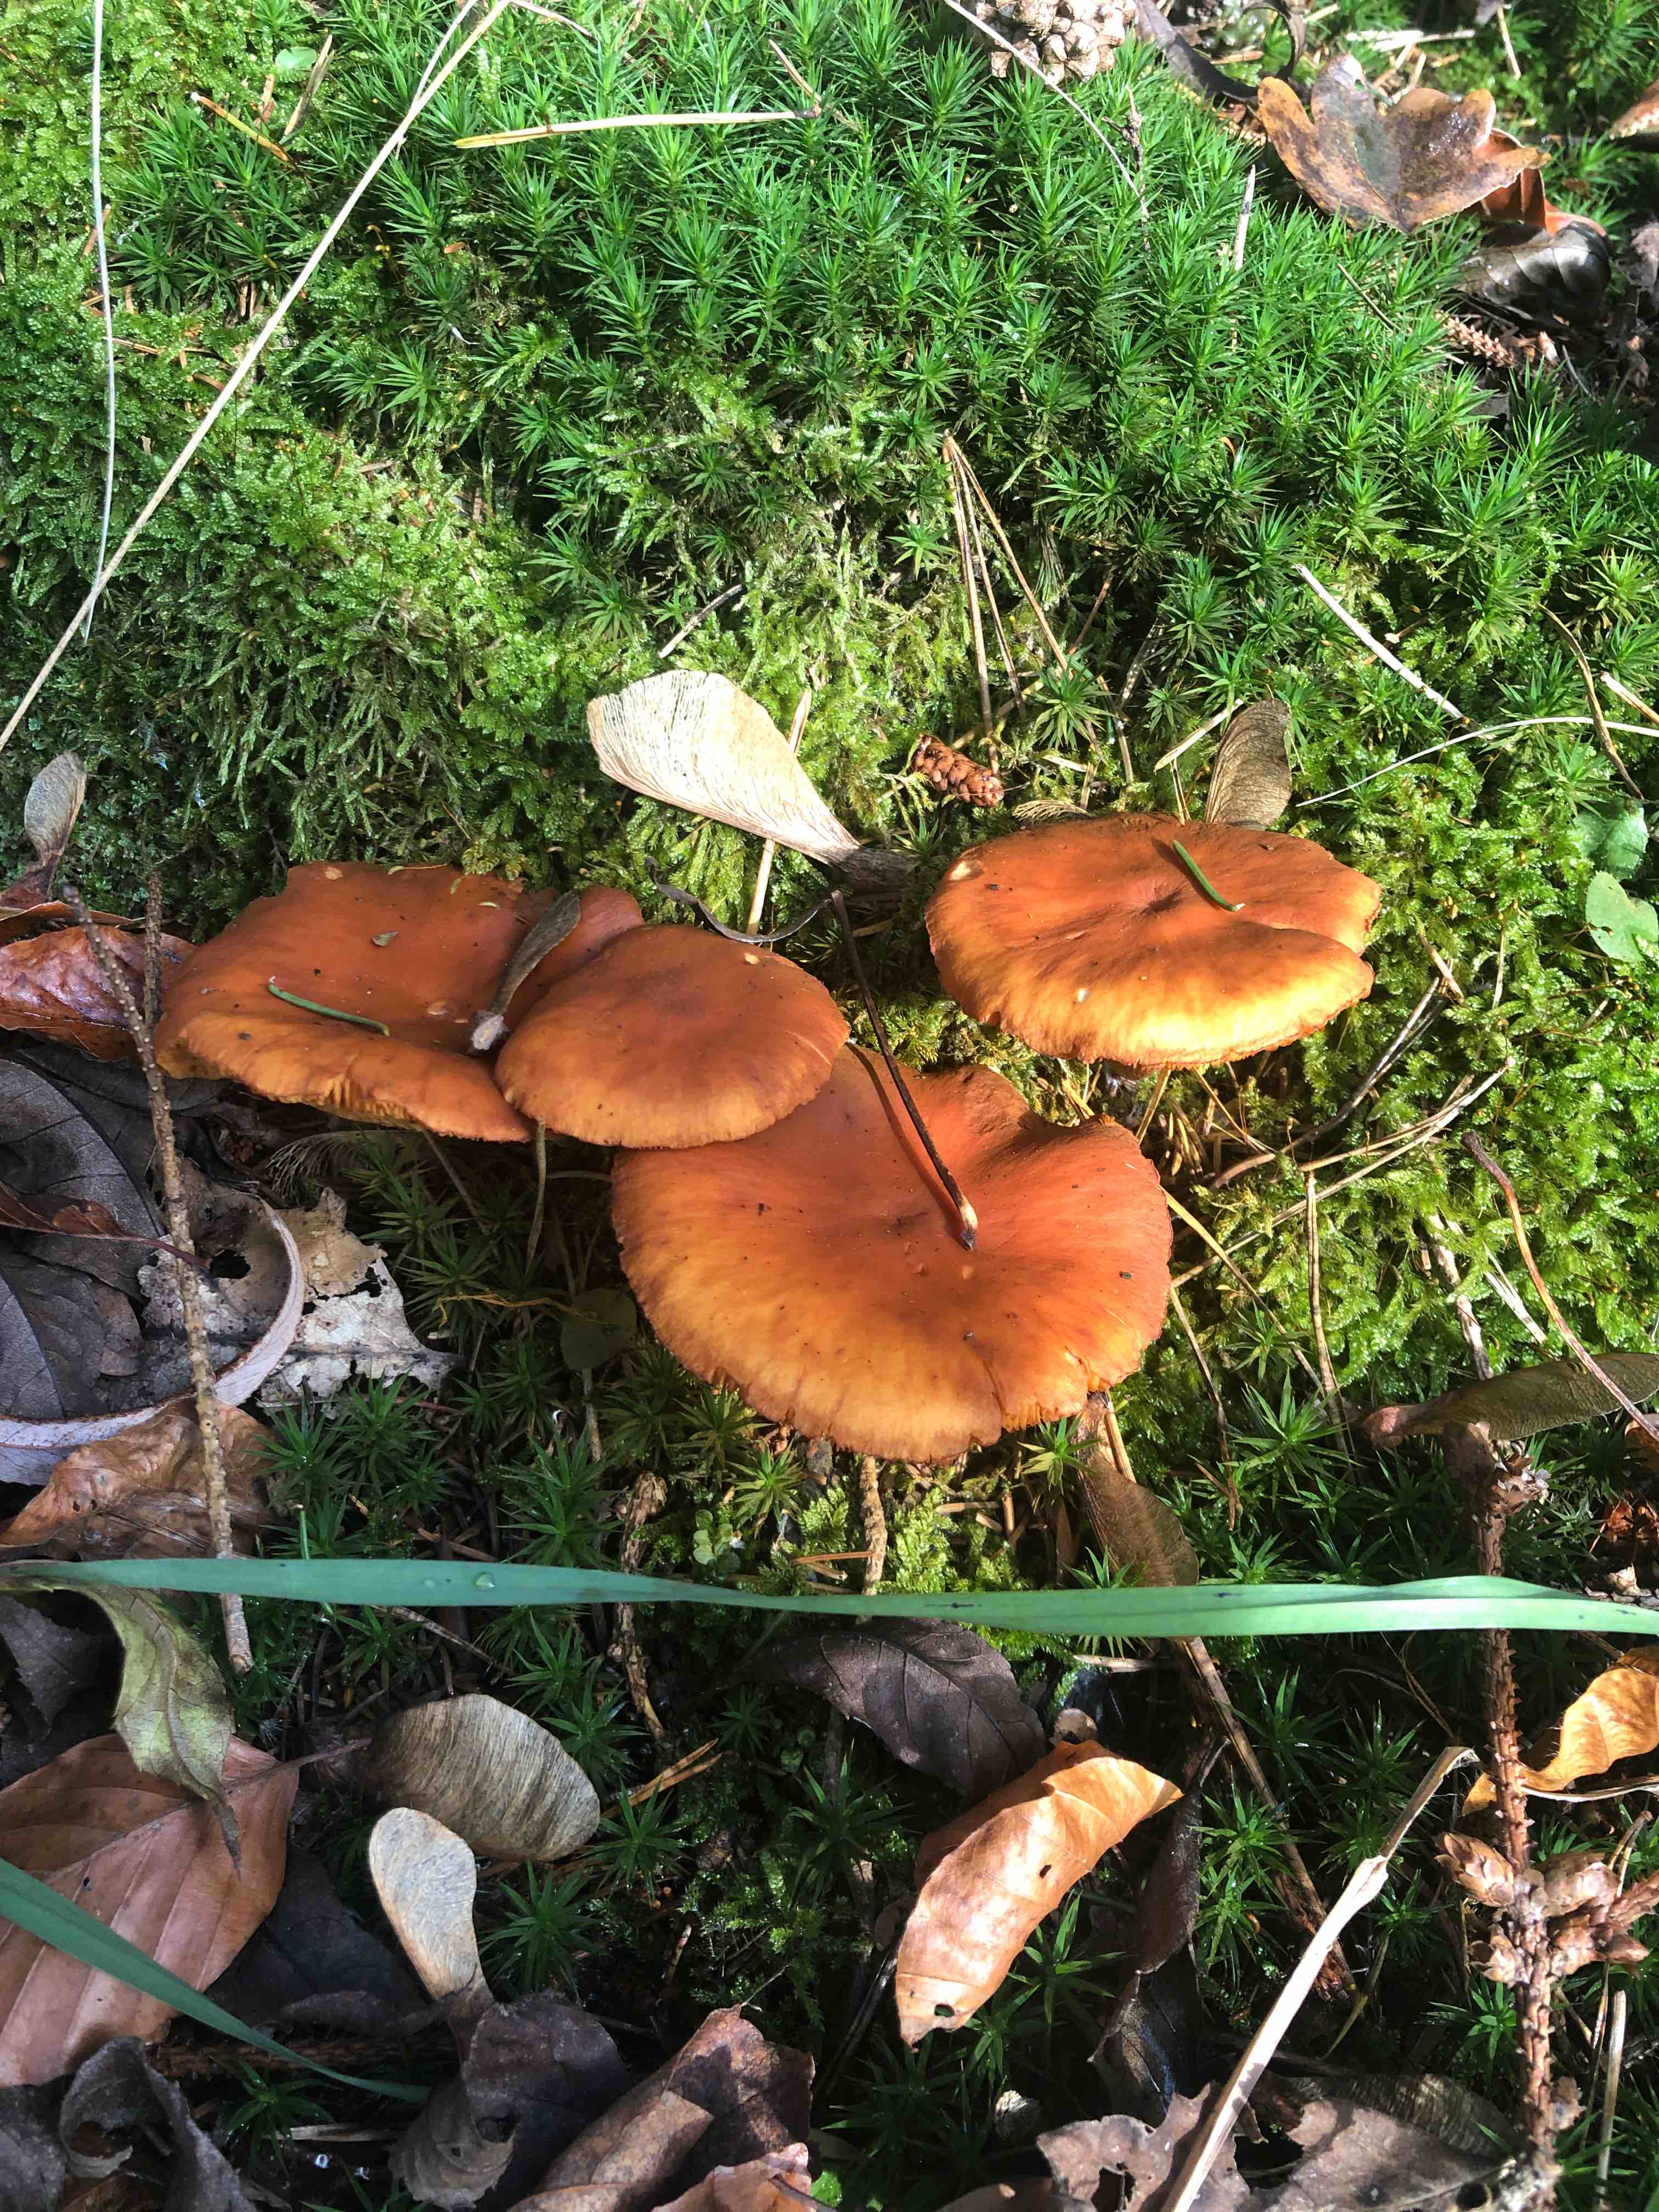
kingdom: Fungi
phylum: Basidiomycota
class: Agaricomycetes
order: Agaricales
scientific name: Agaricales
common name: champignonordenen
